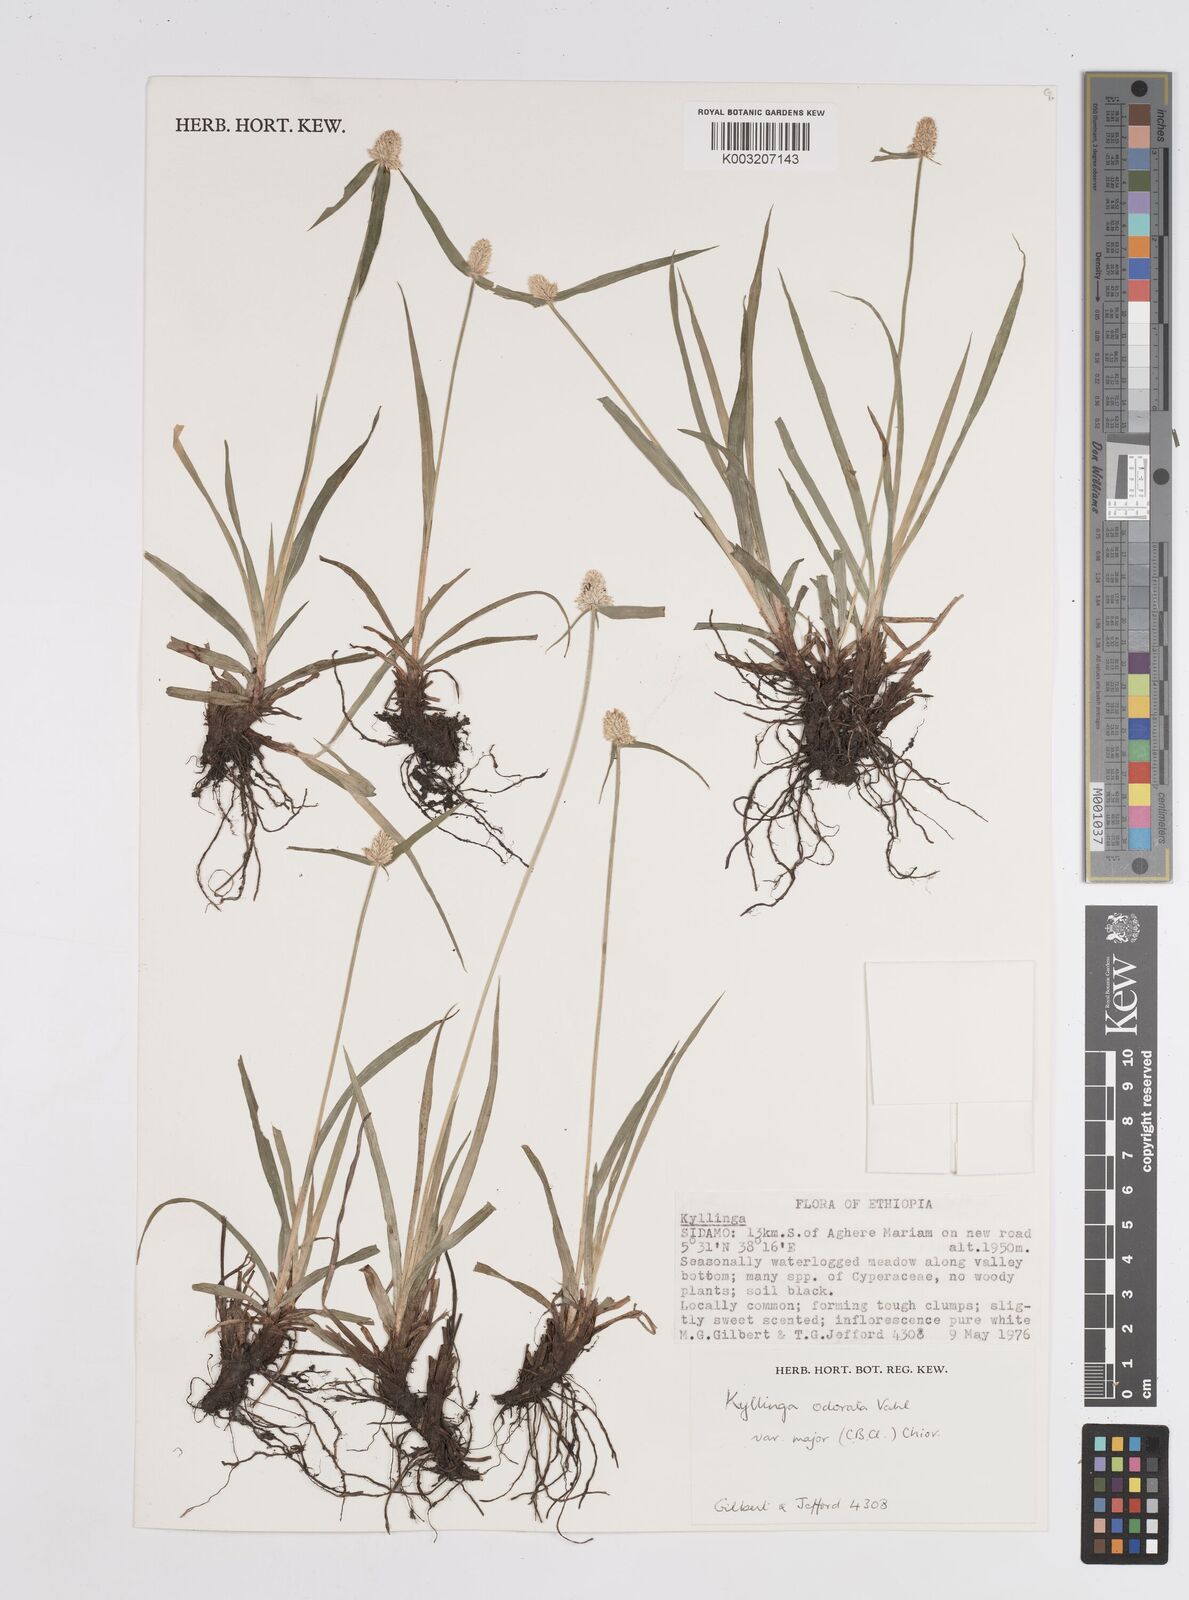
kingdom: Plantae
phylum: Tracheophyta
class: Liliopsida
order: Poales
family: Cyperaceae
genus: Cyperus
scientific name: Cyperus
